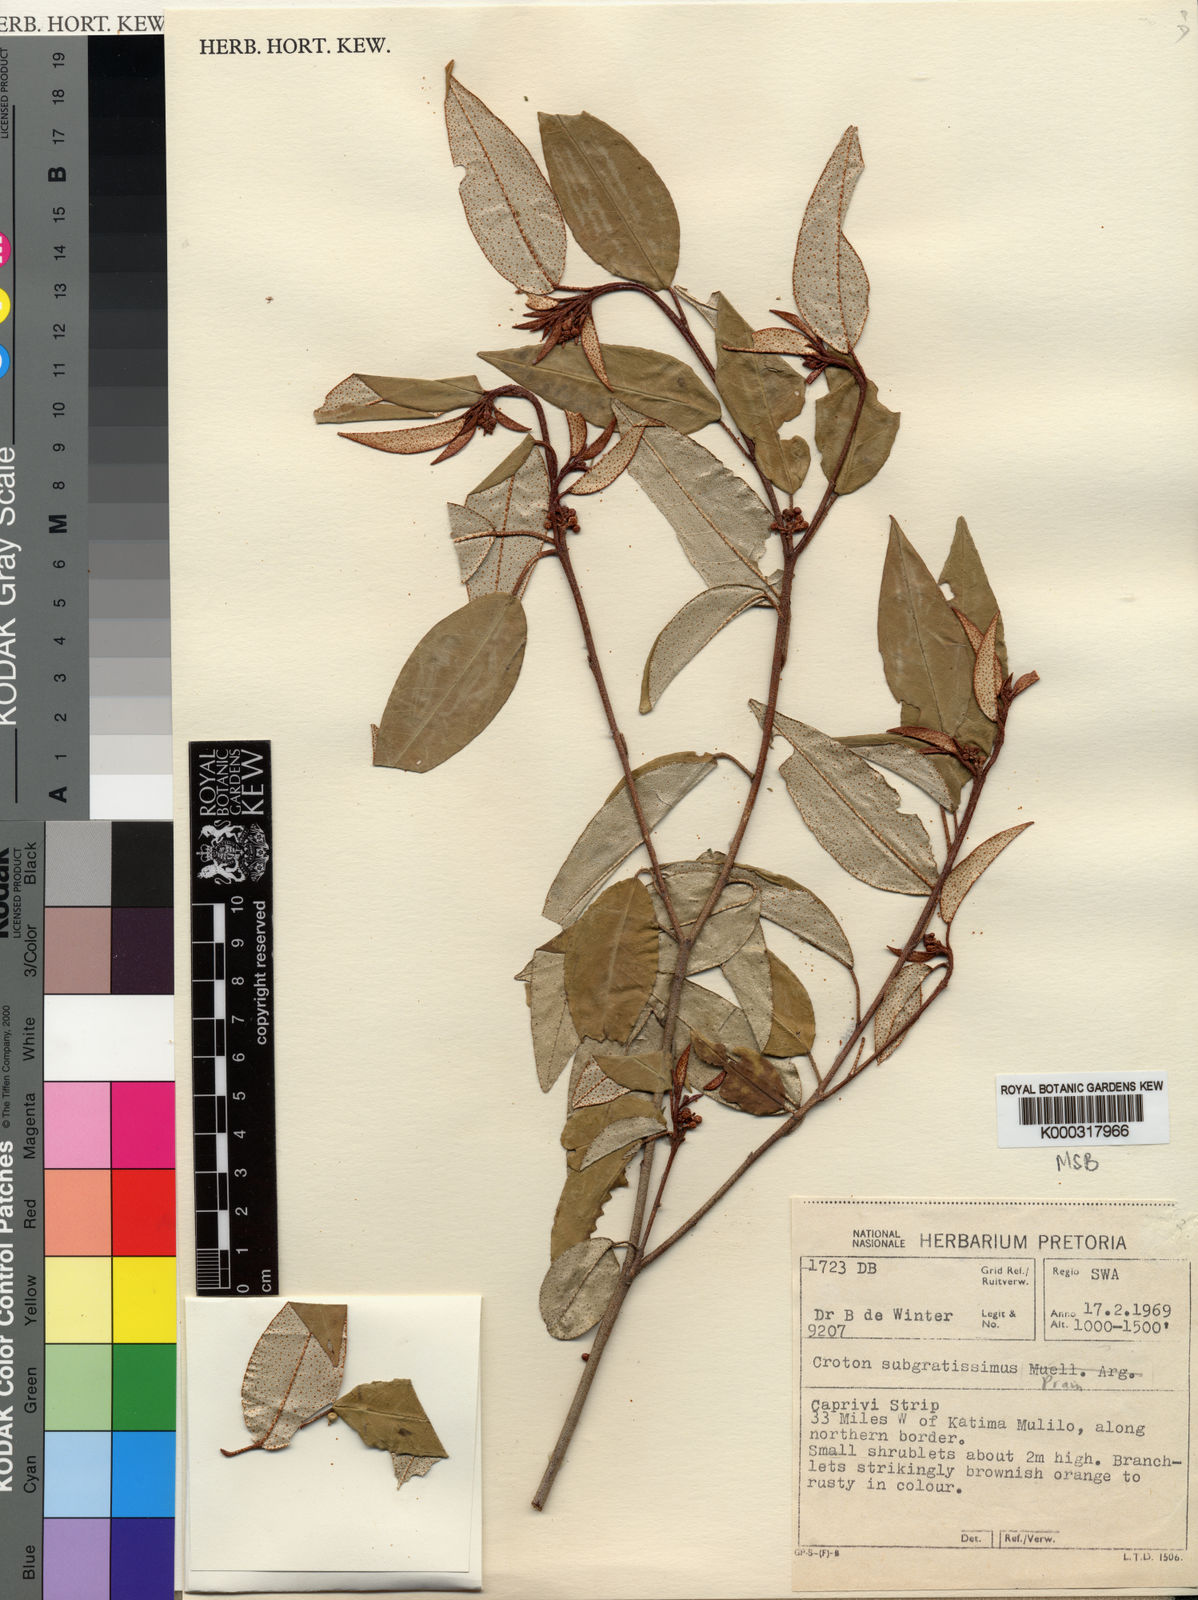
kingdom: Plantae
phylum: Tracheophyta
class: Magnoliopsida
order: Malpighiales
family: Euphorbiaceae
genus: Croton
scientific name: Croton gratissimus
